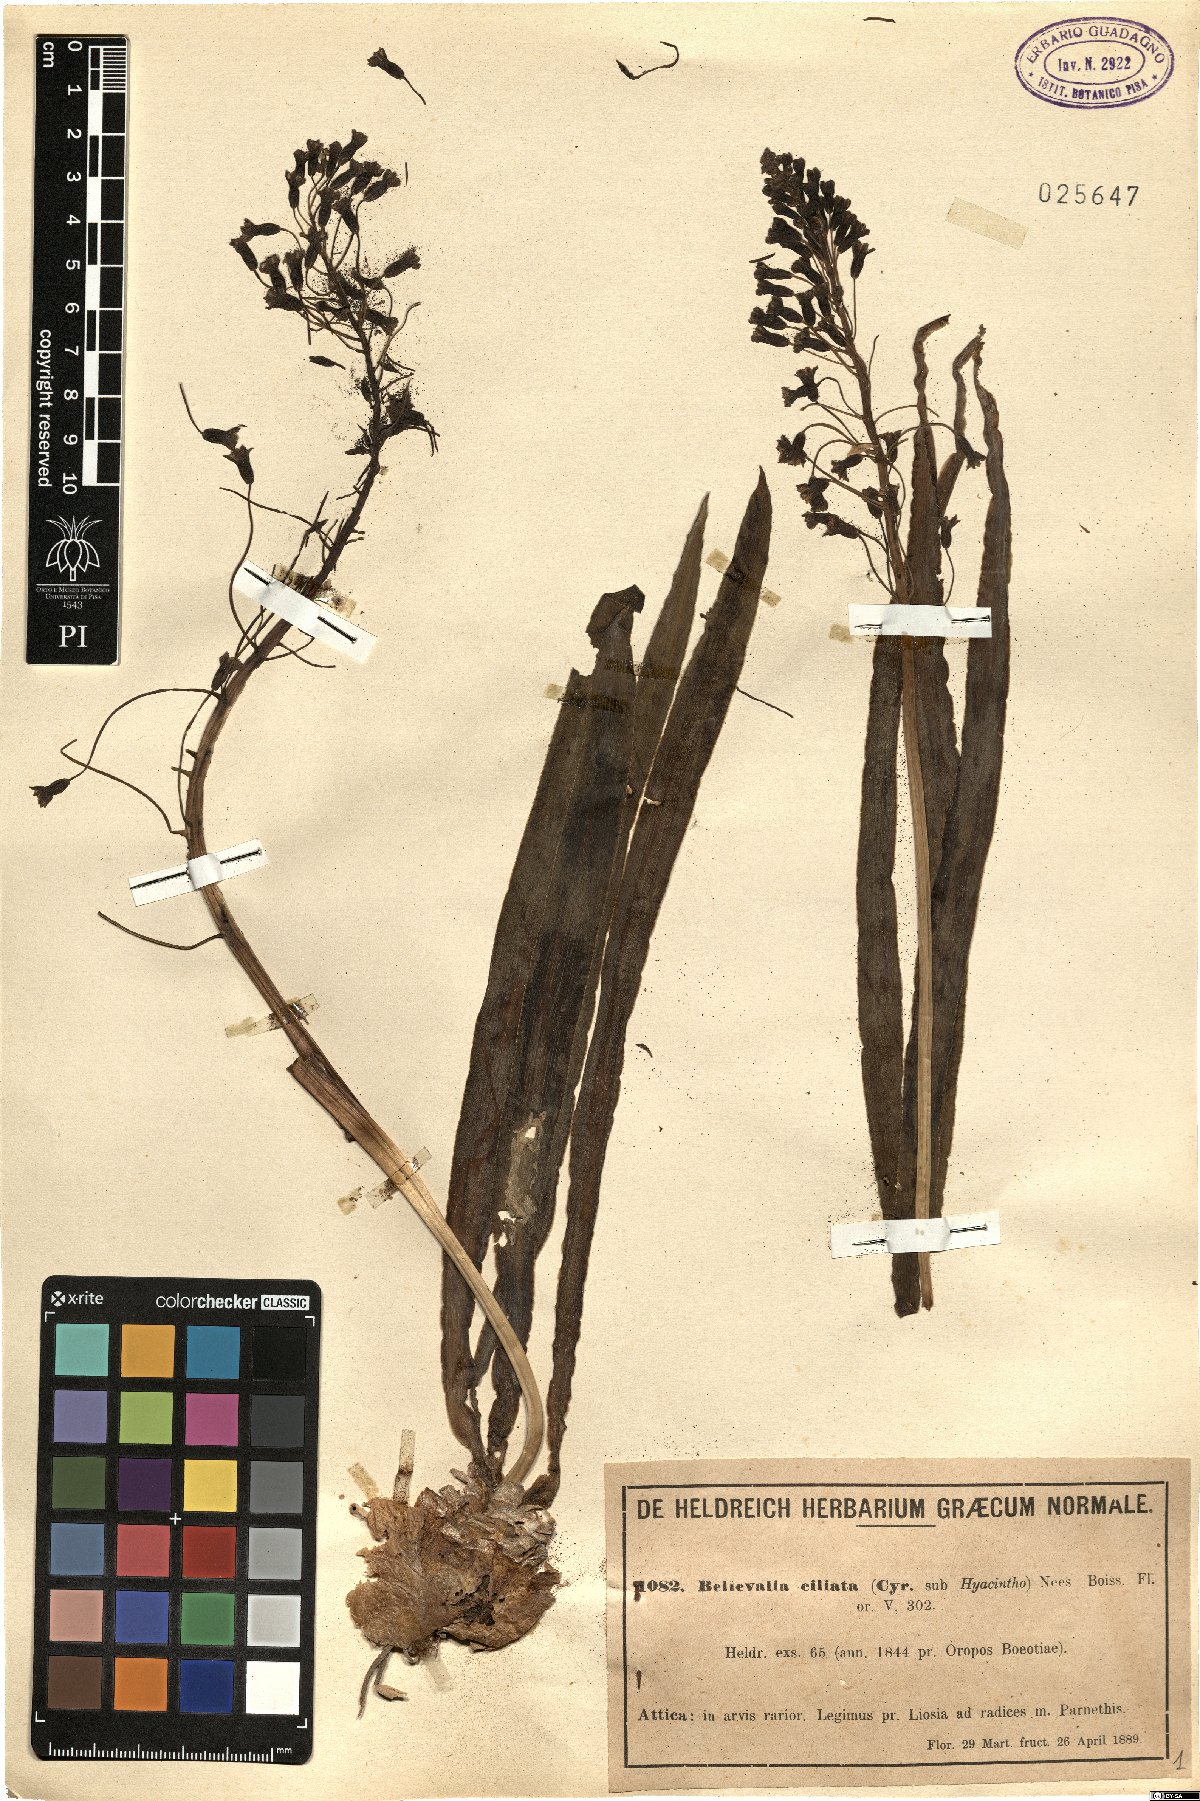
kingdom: Plantae
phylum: Tracheophyta
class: Liliopsida
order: Asparagales
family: Asparagaceae
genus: Bellevalia
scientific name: Bellevalia ciliata
